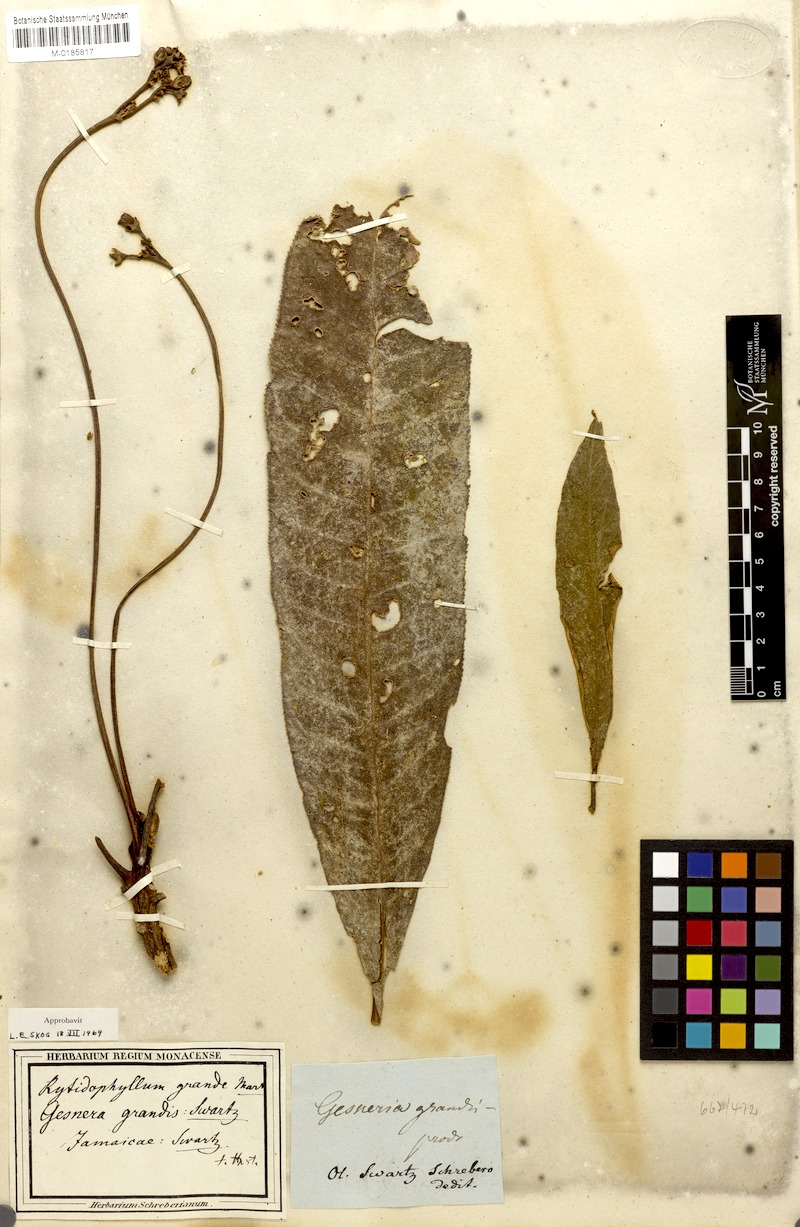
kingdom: Plantae
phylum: Tracheophyta
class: Magnoliopsida
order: Lamiales
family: Gesneriaceae
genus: Rhytidophyllum
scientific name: Rhytidophyllum grande
